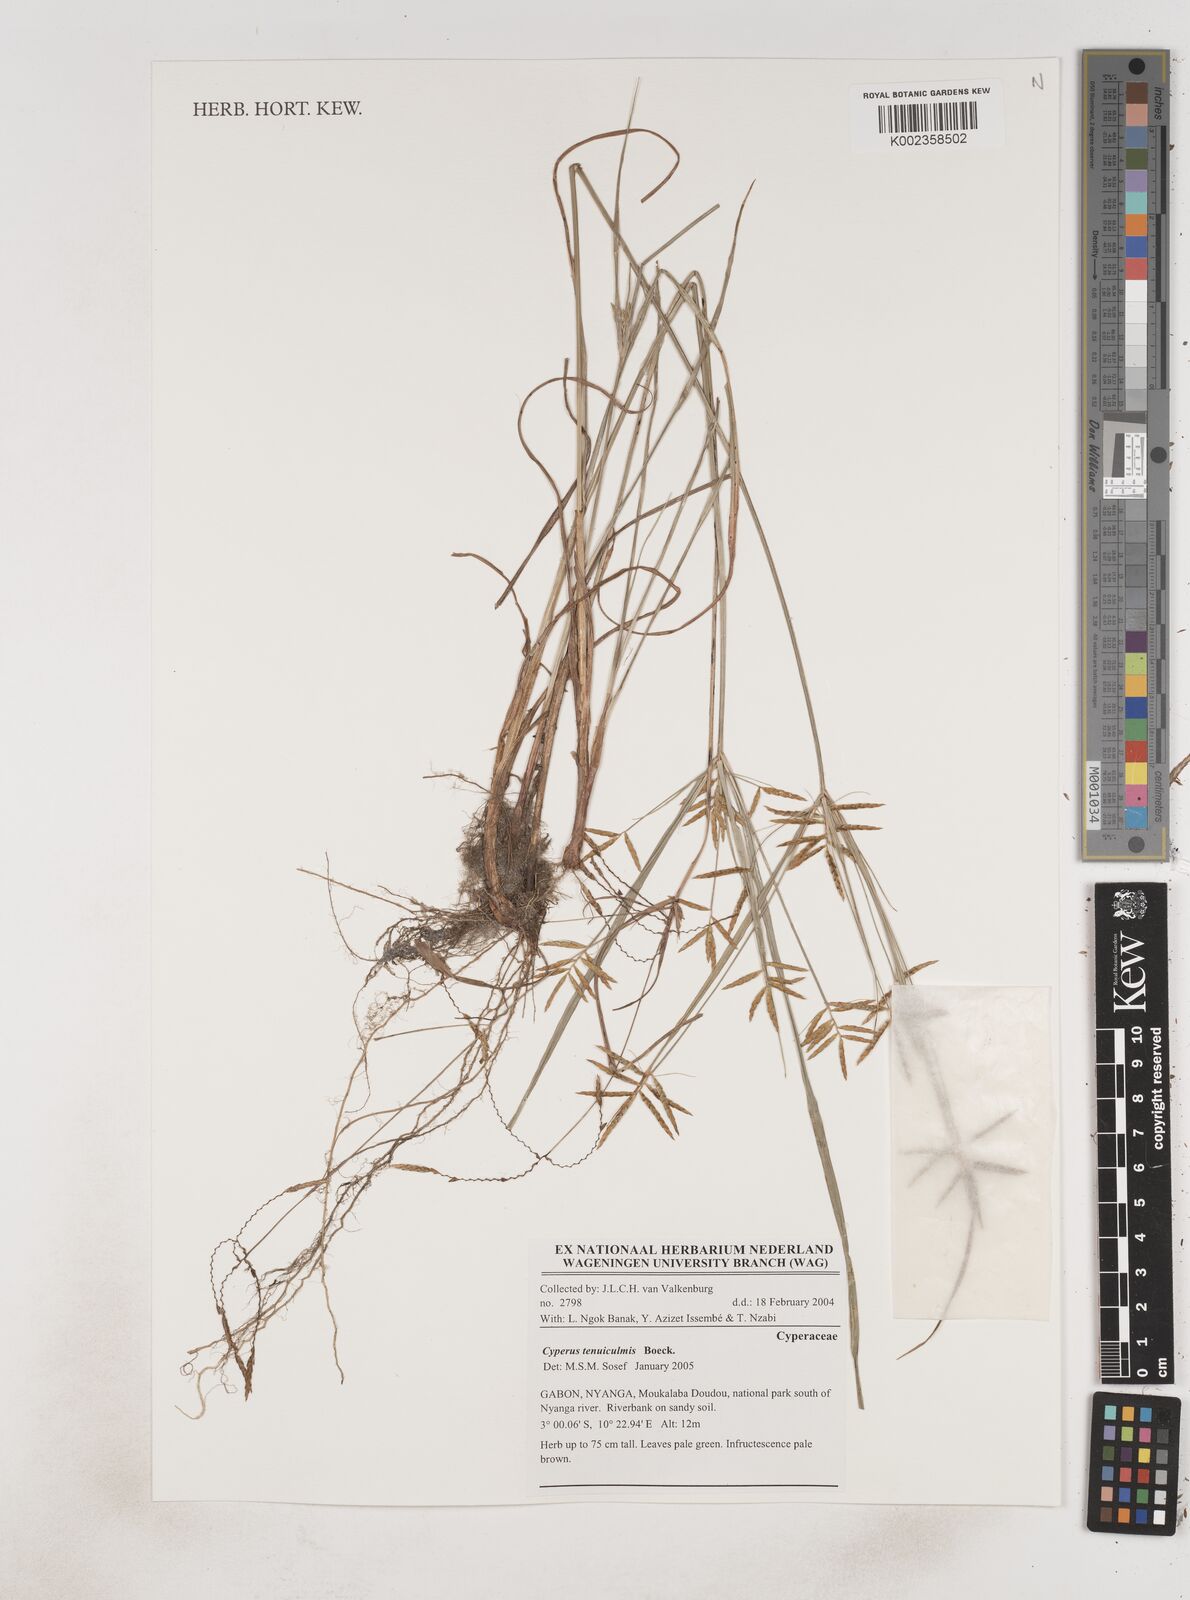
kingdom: Plantae
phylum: Tracheophyta
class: Liliopsida
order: Poales
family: Cyperaceae
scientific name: Cyperaceae
